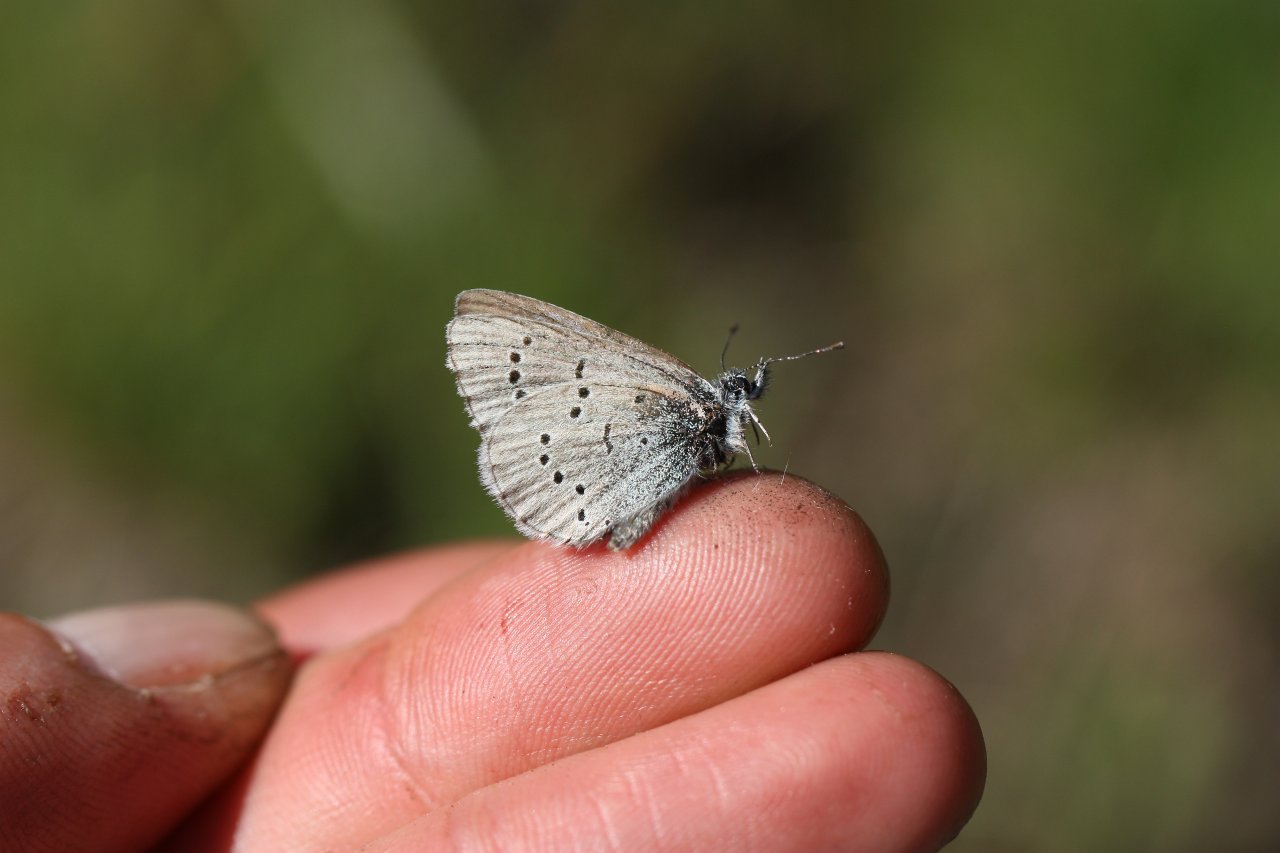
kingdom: Animalia
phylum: Arthropoda
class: Insecta
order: Lepidoptera
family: Lycaenidae
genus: Icaricia
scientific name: Icaricia icarioides
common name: Boisduval's Blue
